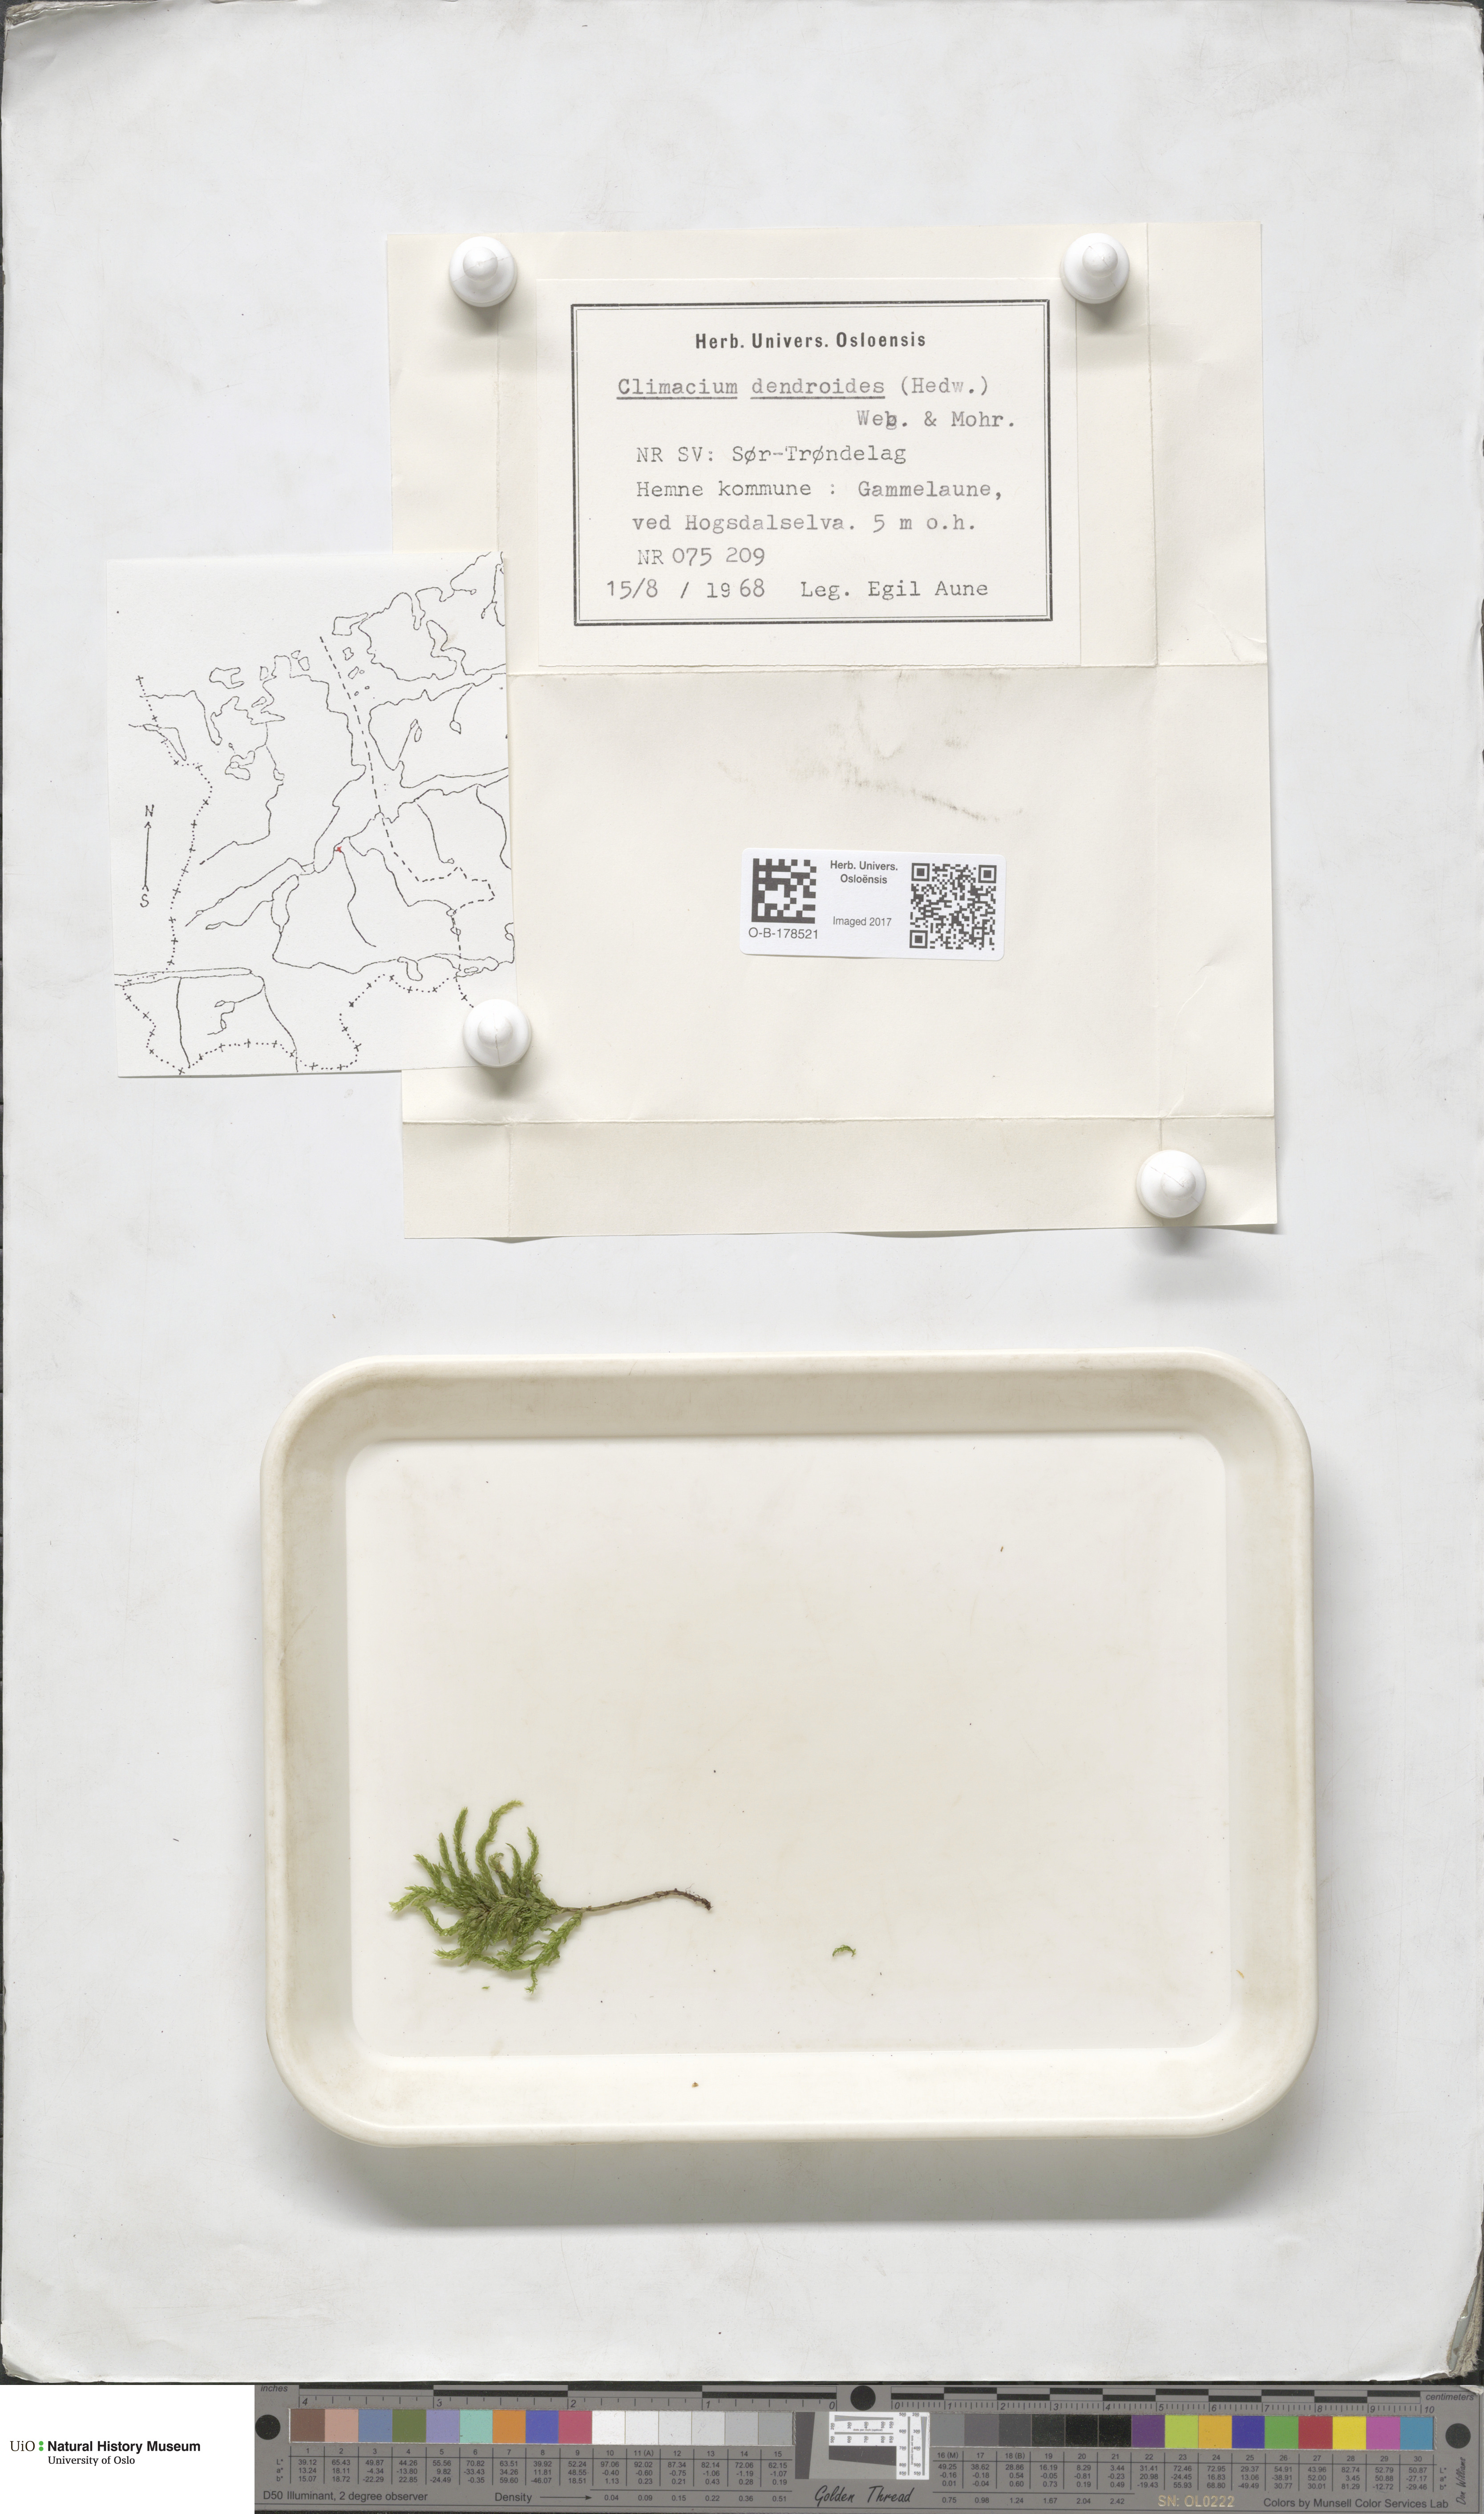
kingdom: Plantae
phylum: Bryophyta
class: Bryopsida
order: Hypnales
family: Climaciaceae
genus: Climacium
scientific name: Climacium dendroides
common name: Northern tree moss
